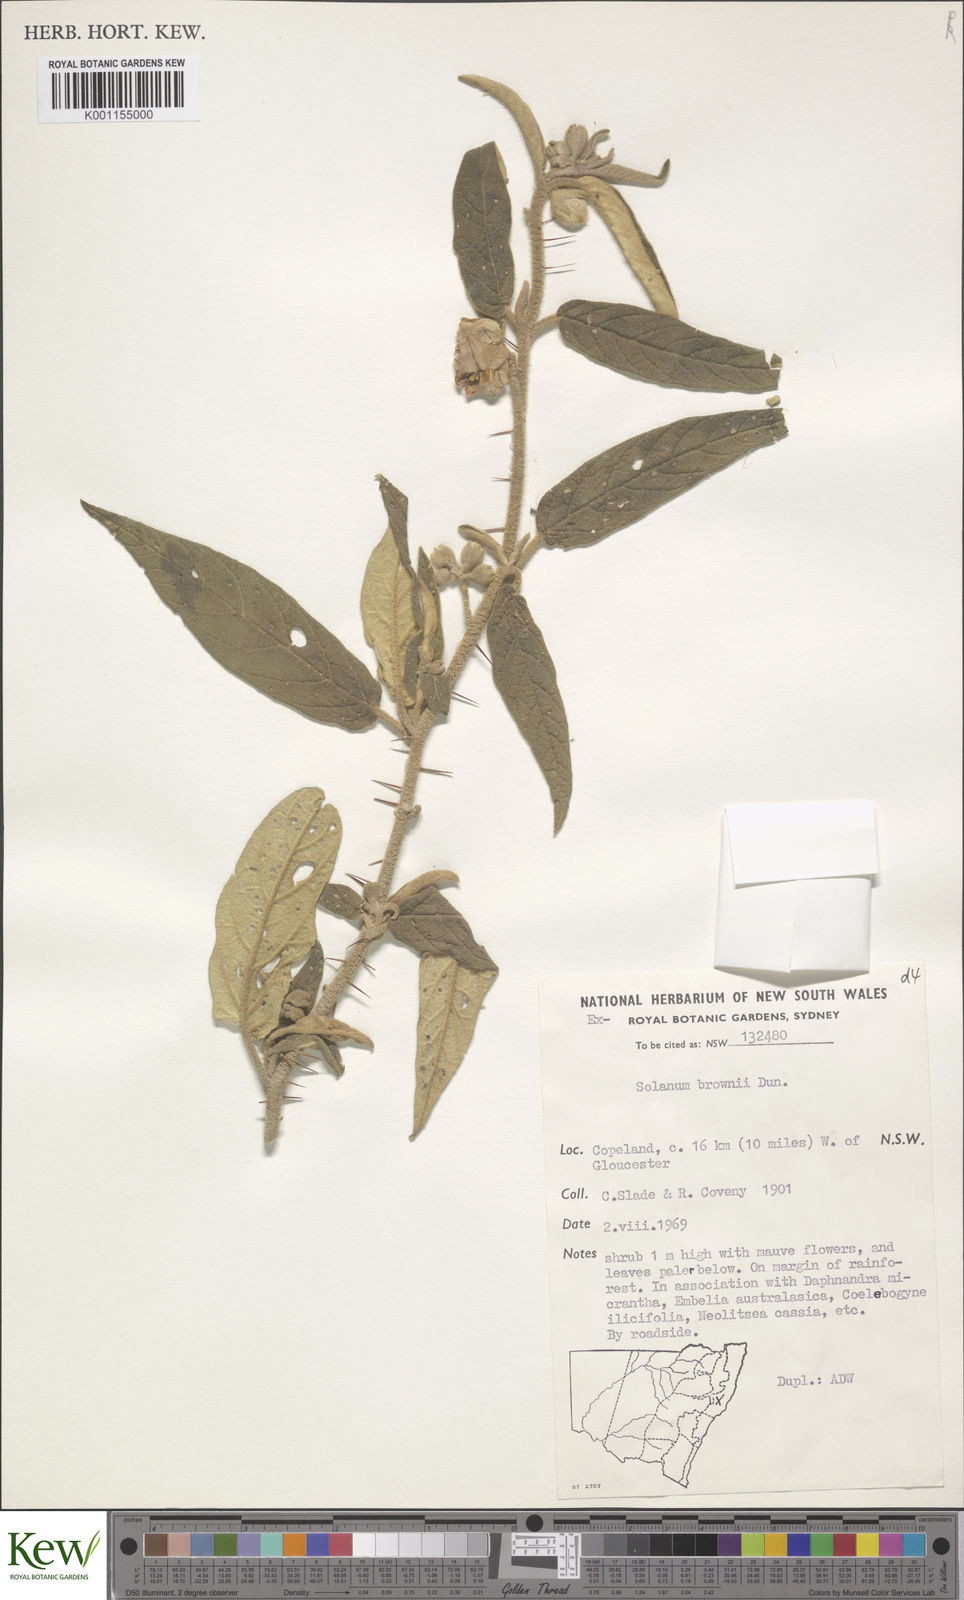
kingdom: Plantae
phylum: Tracheophyta
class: Magnoliopsida
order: Solanales
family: Solanaceae
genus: Solanum
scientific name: Solanum brownii
